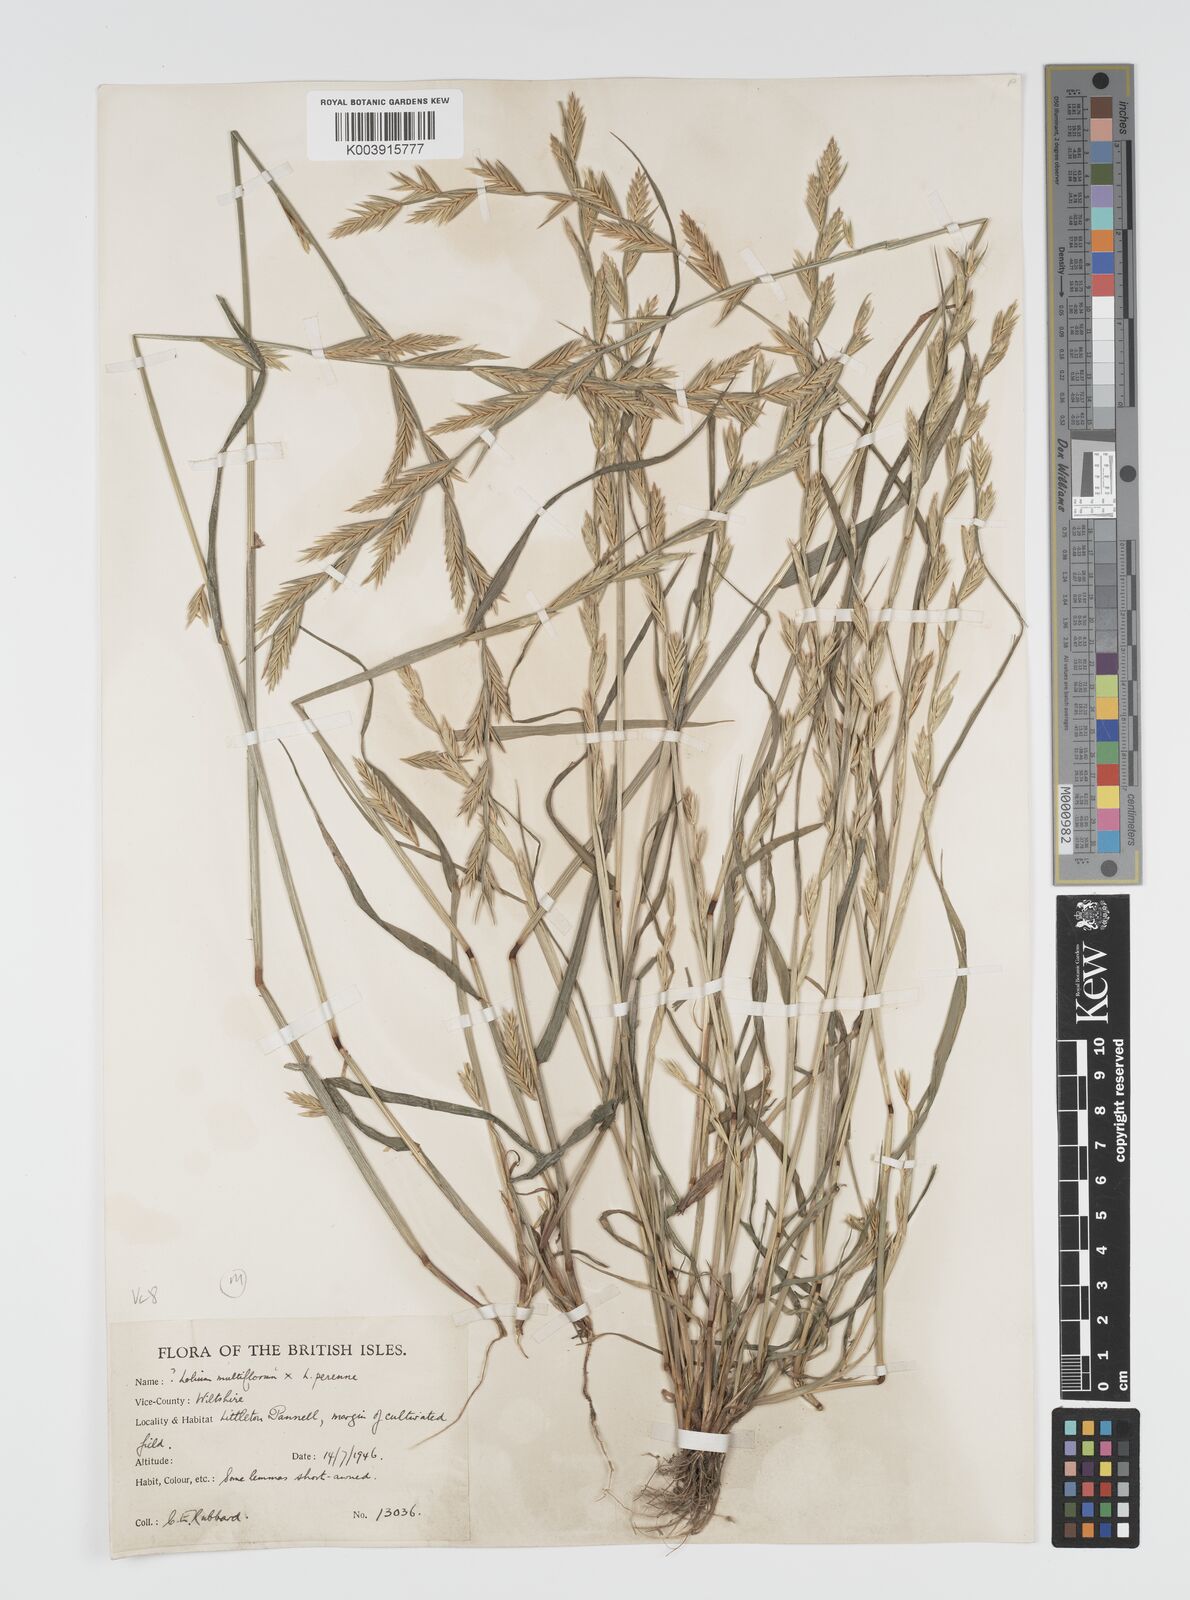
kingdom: Plantae
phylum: Tracheophyta
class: Liliopsida
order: Poales
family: Poaceae
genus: Lolium
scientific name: Lolium multiflorum
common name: Annual ryegrass
